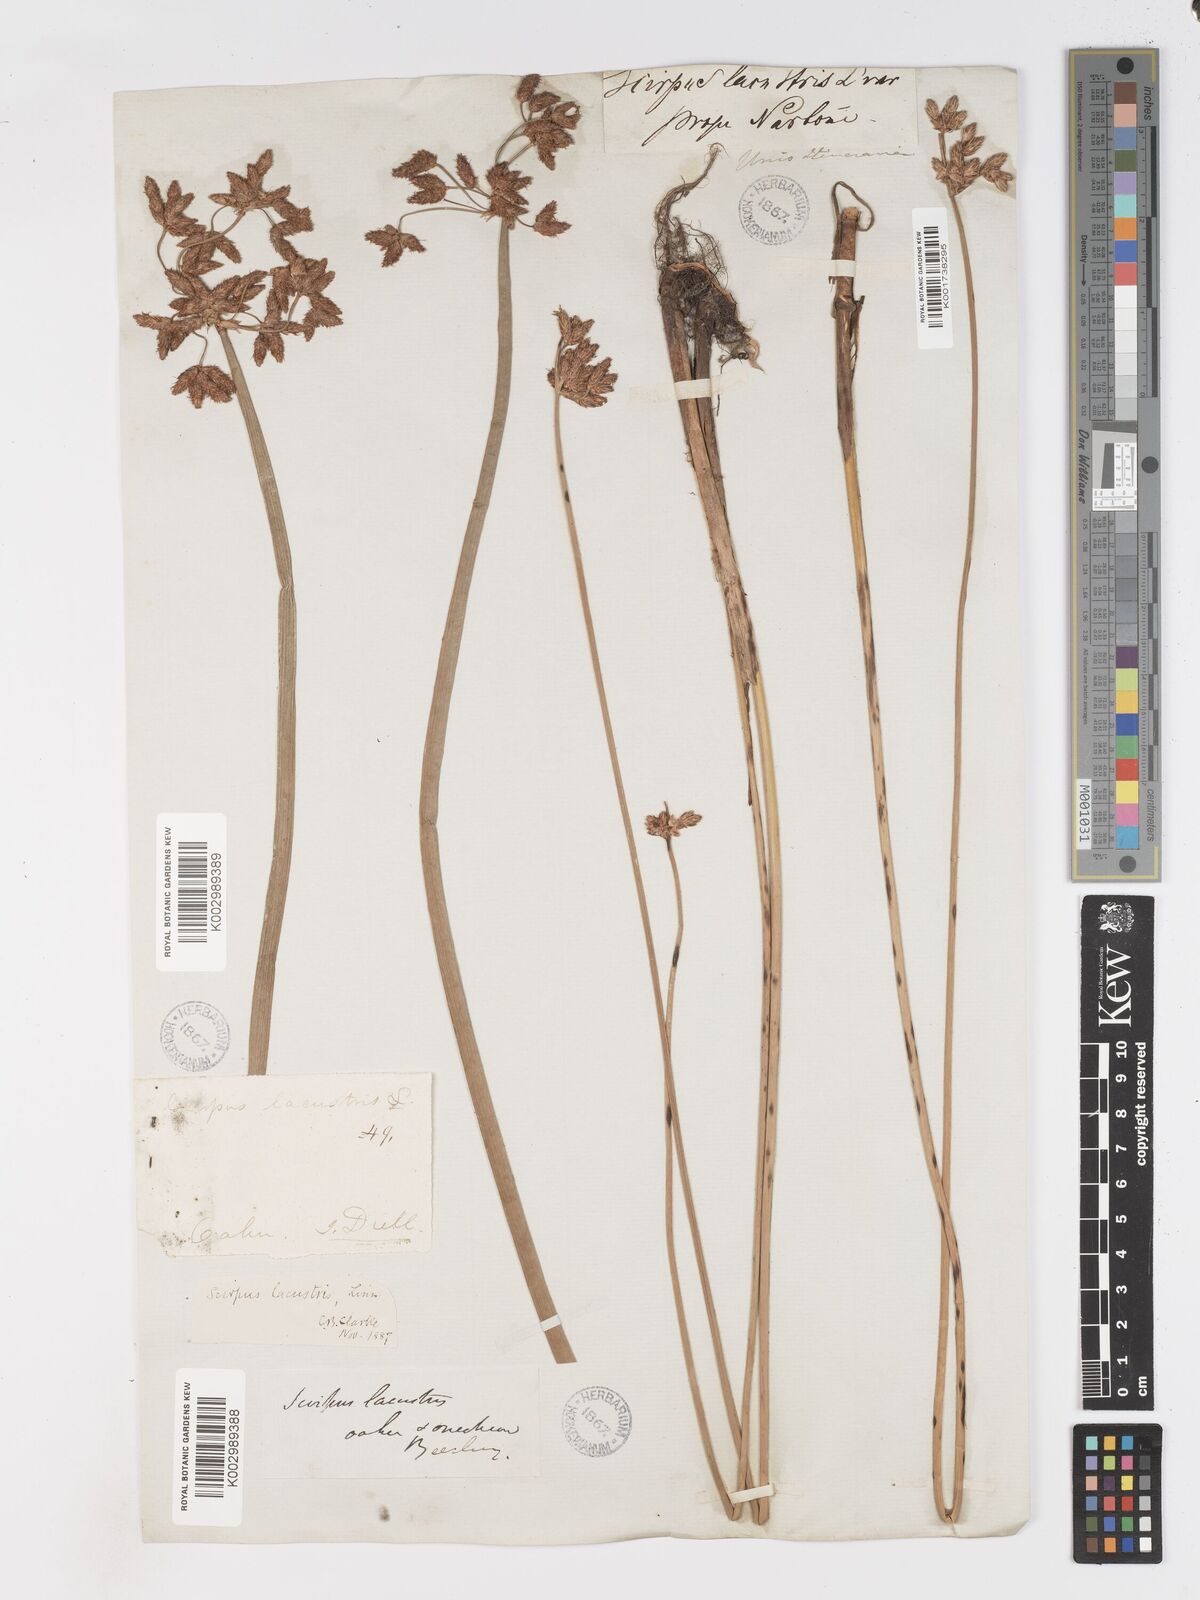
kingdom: Plantae
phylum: Tracheophyta
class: Liliopsida
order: Poales
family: Cyperaceae
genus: Schoenoplectus
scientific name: Schoenoplectus californicus
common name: California bulrush
